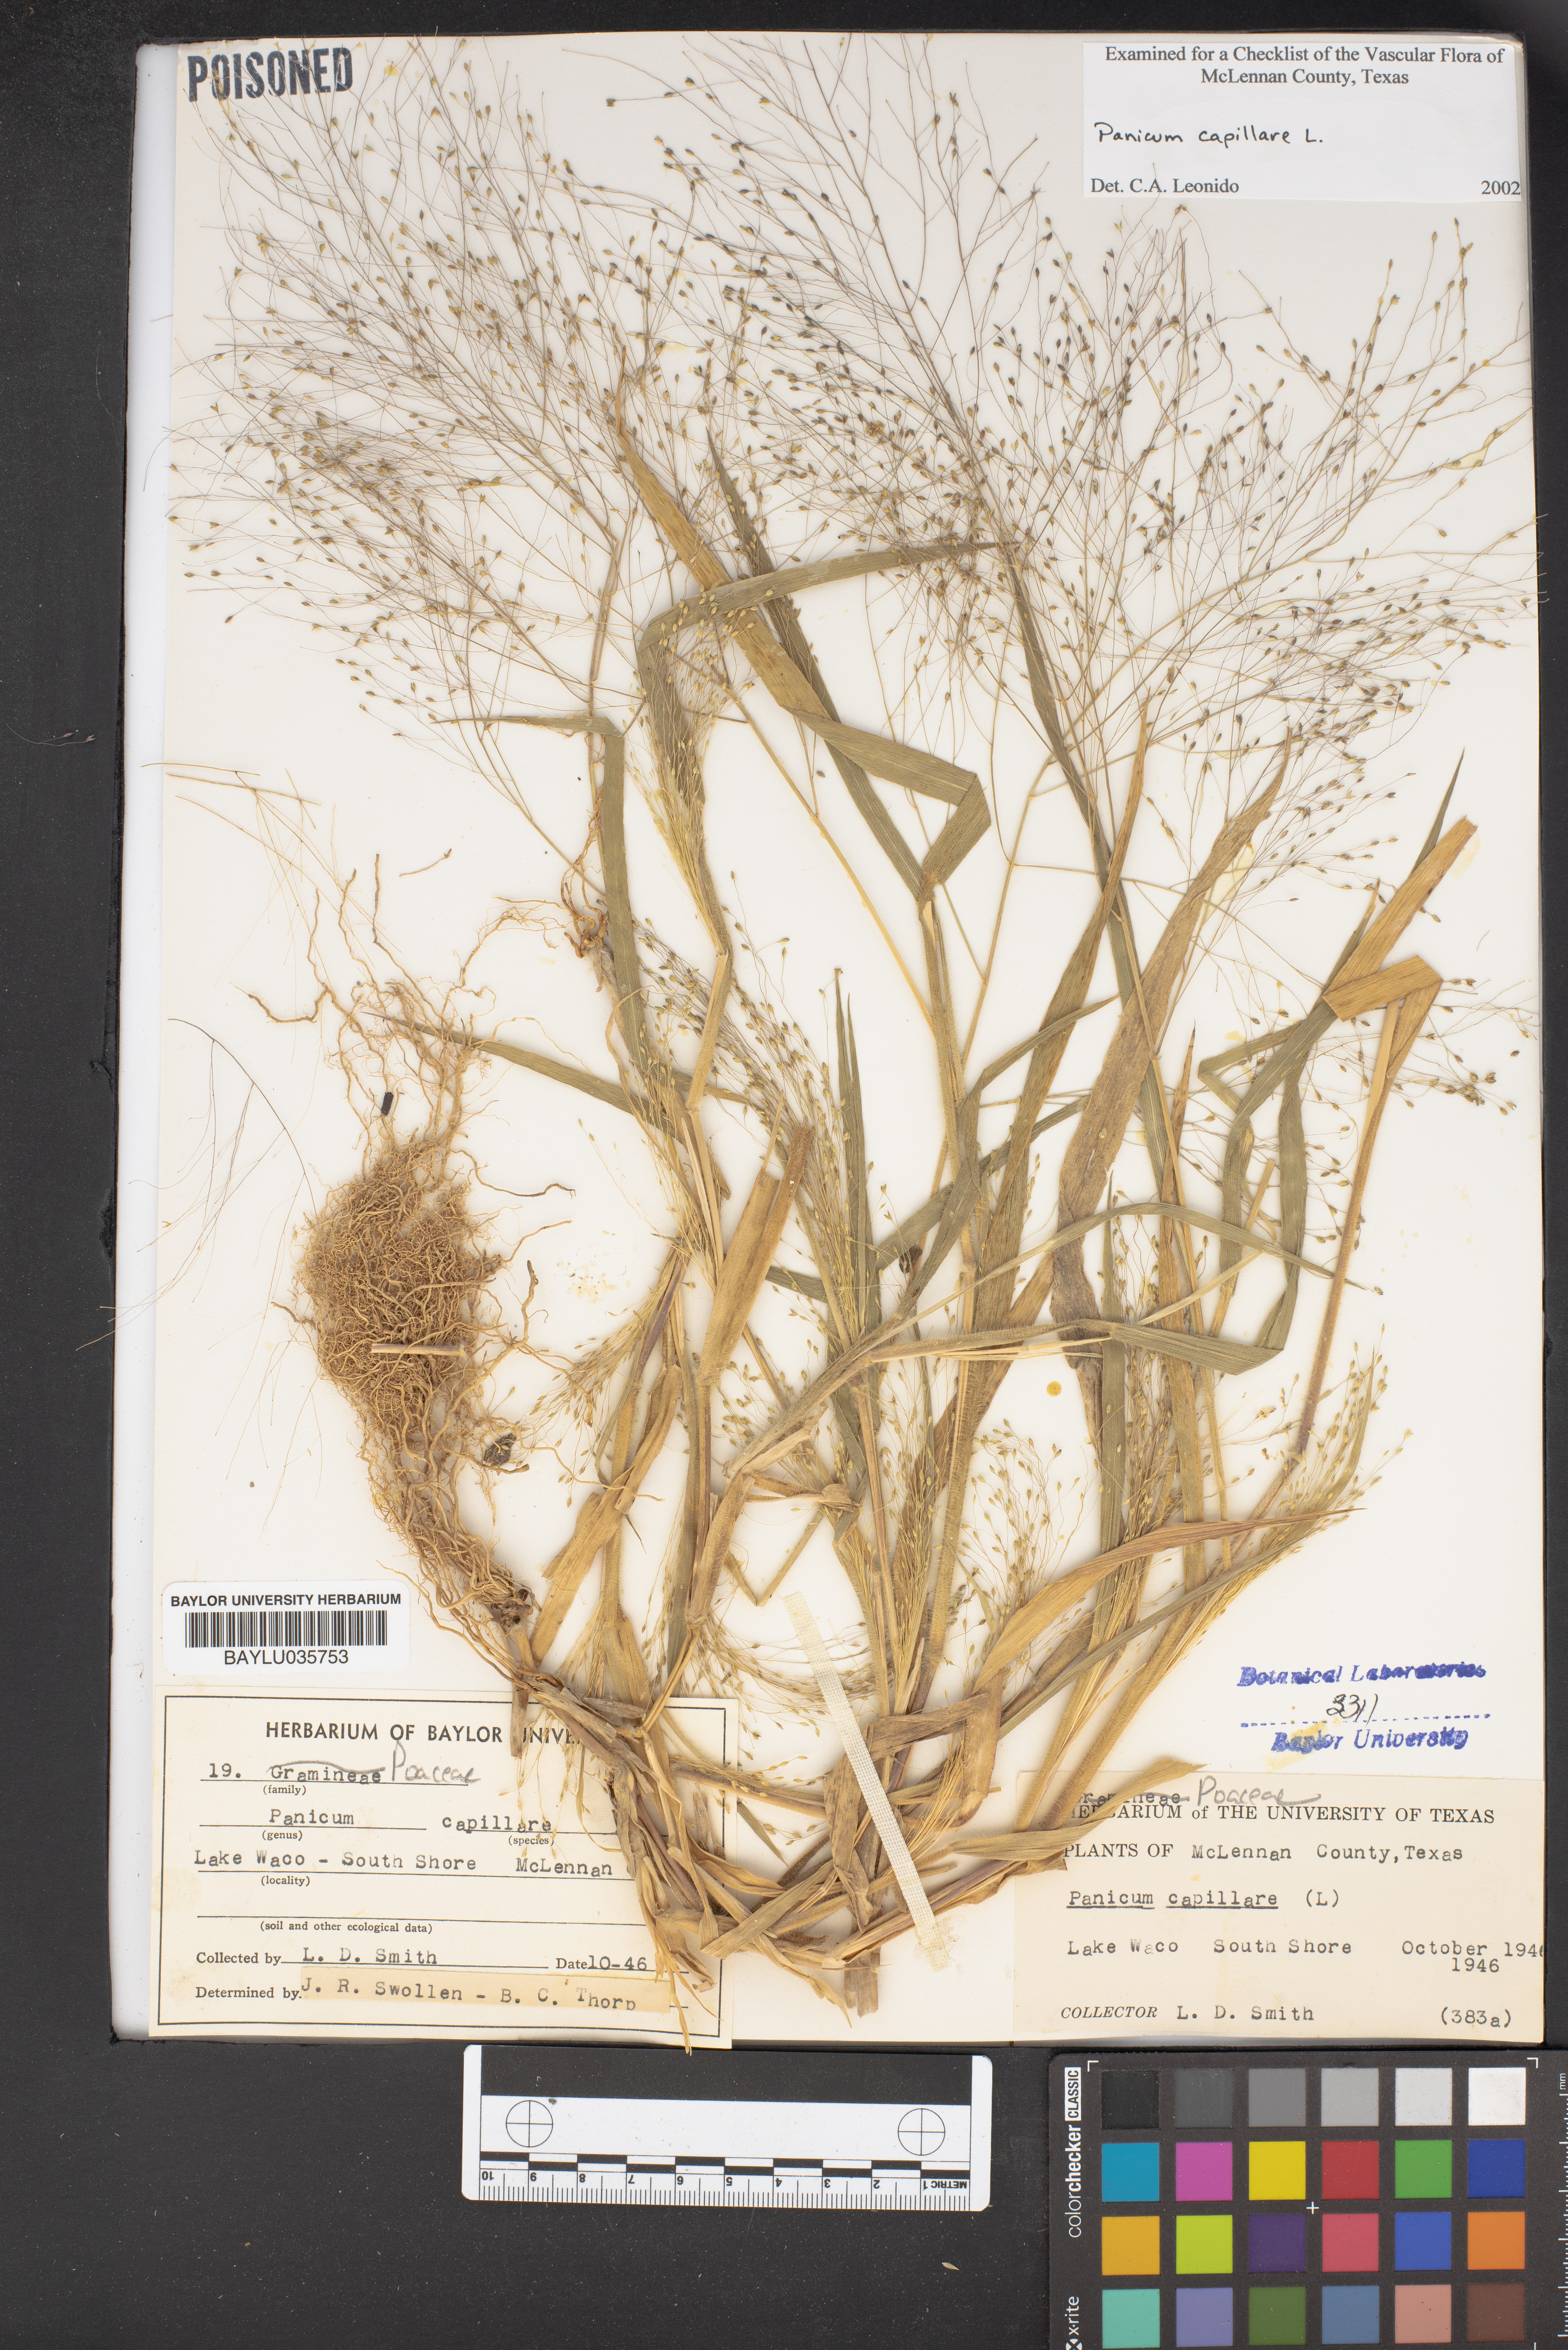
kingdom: Plantae
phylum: Tracheophyta
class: Liliopsida
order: Poales
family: Poaceae
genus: Panicum
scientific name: Panicum capillare
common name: Witch-grass
